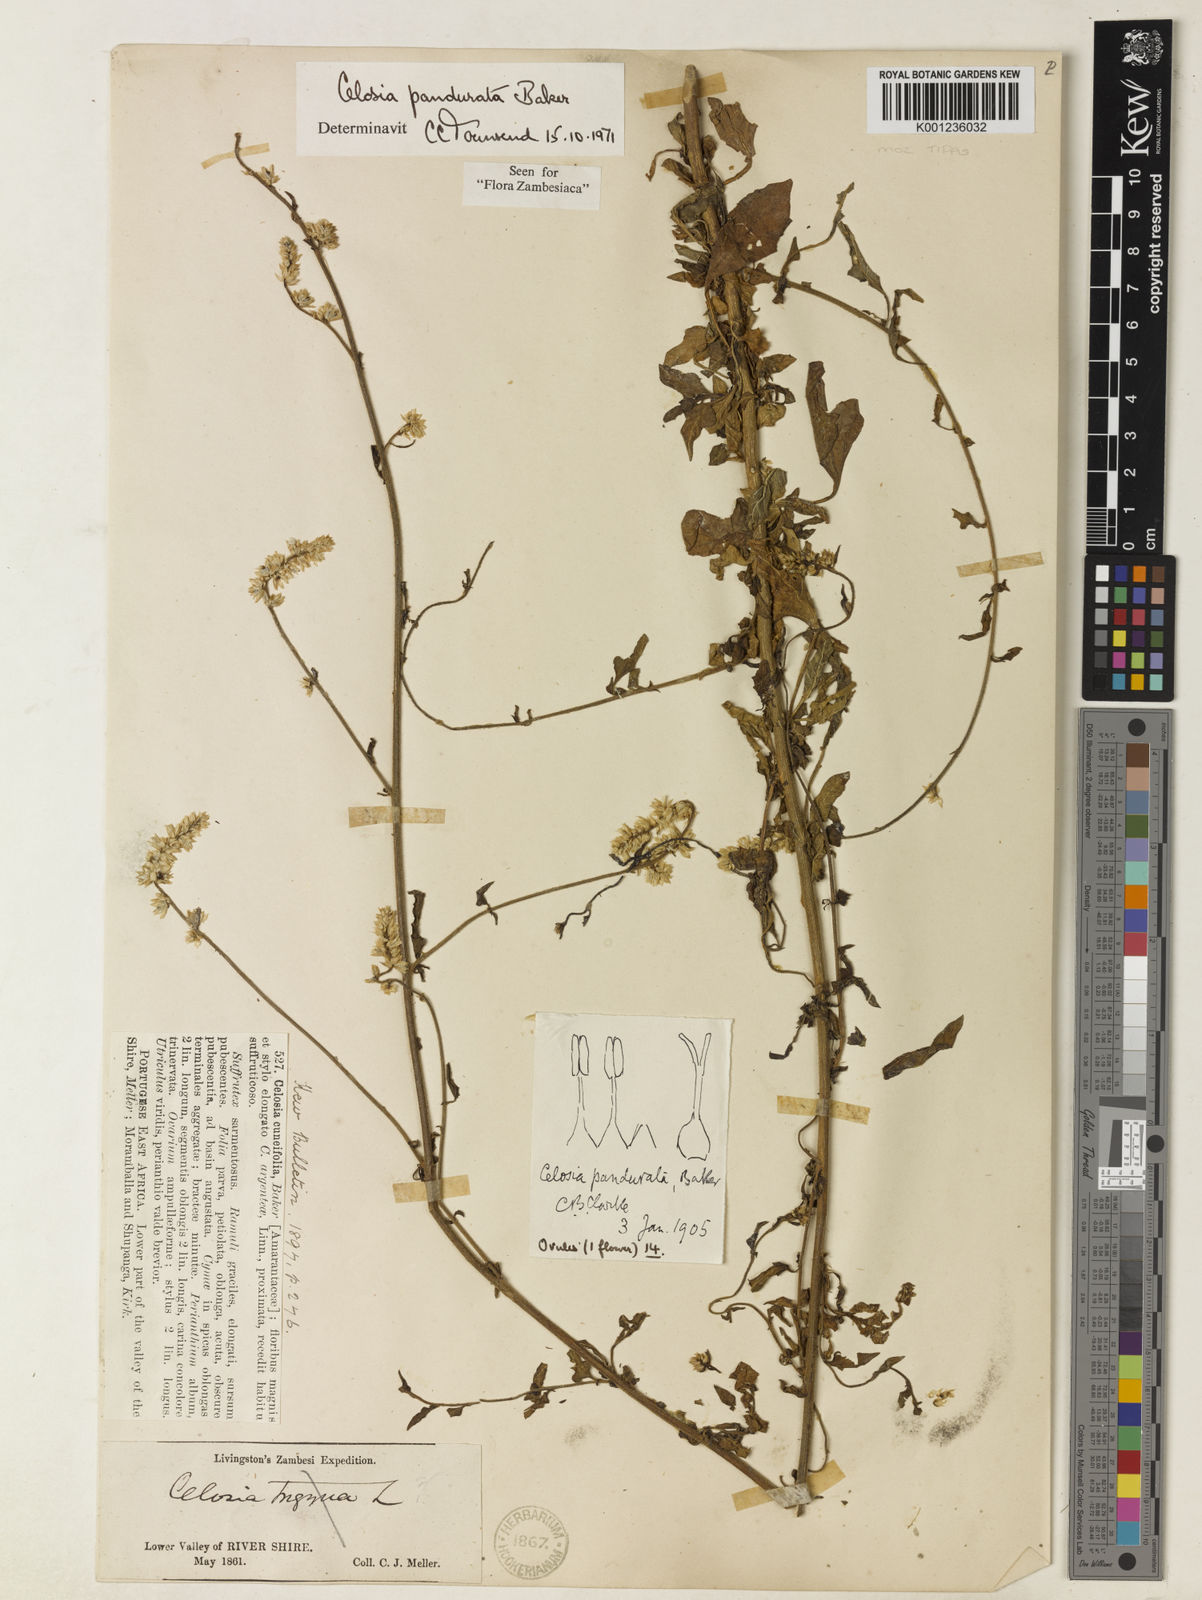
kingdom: Plantae
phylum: Tracheophyta
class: Magnoliopsida
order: Caryophyllales
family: Amaranthaceae
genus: Celosia
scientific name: Celosia pandurata
